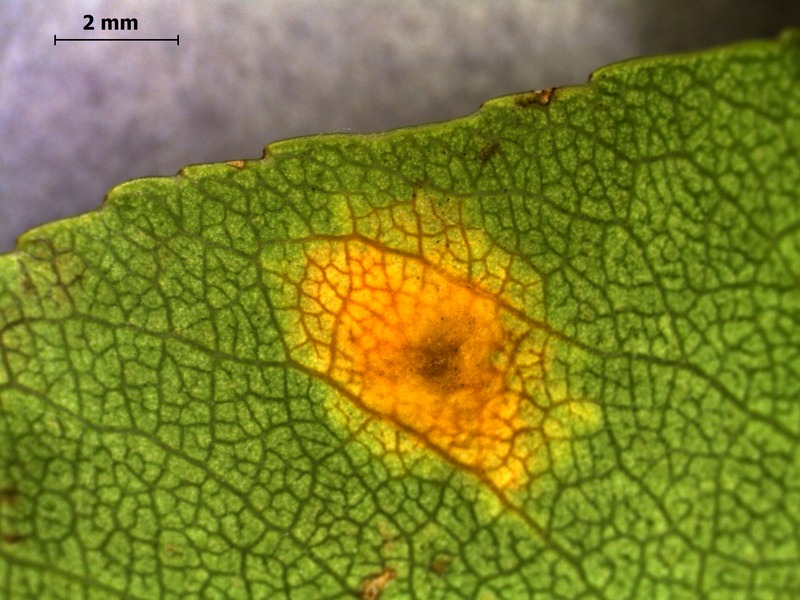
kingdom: Fungi
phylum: Basidiomycota
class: Pucciniomycetes
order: Pucciniales
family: Gymnosporangiaceae
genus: Gymnosporangium
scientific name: Gymnosporangium clavariiforme
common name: Tongues of fire
